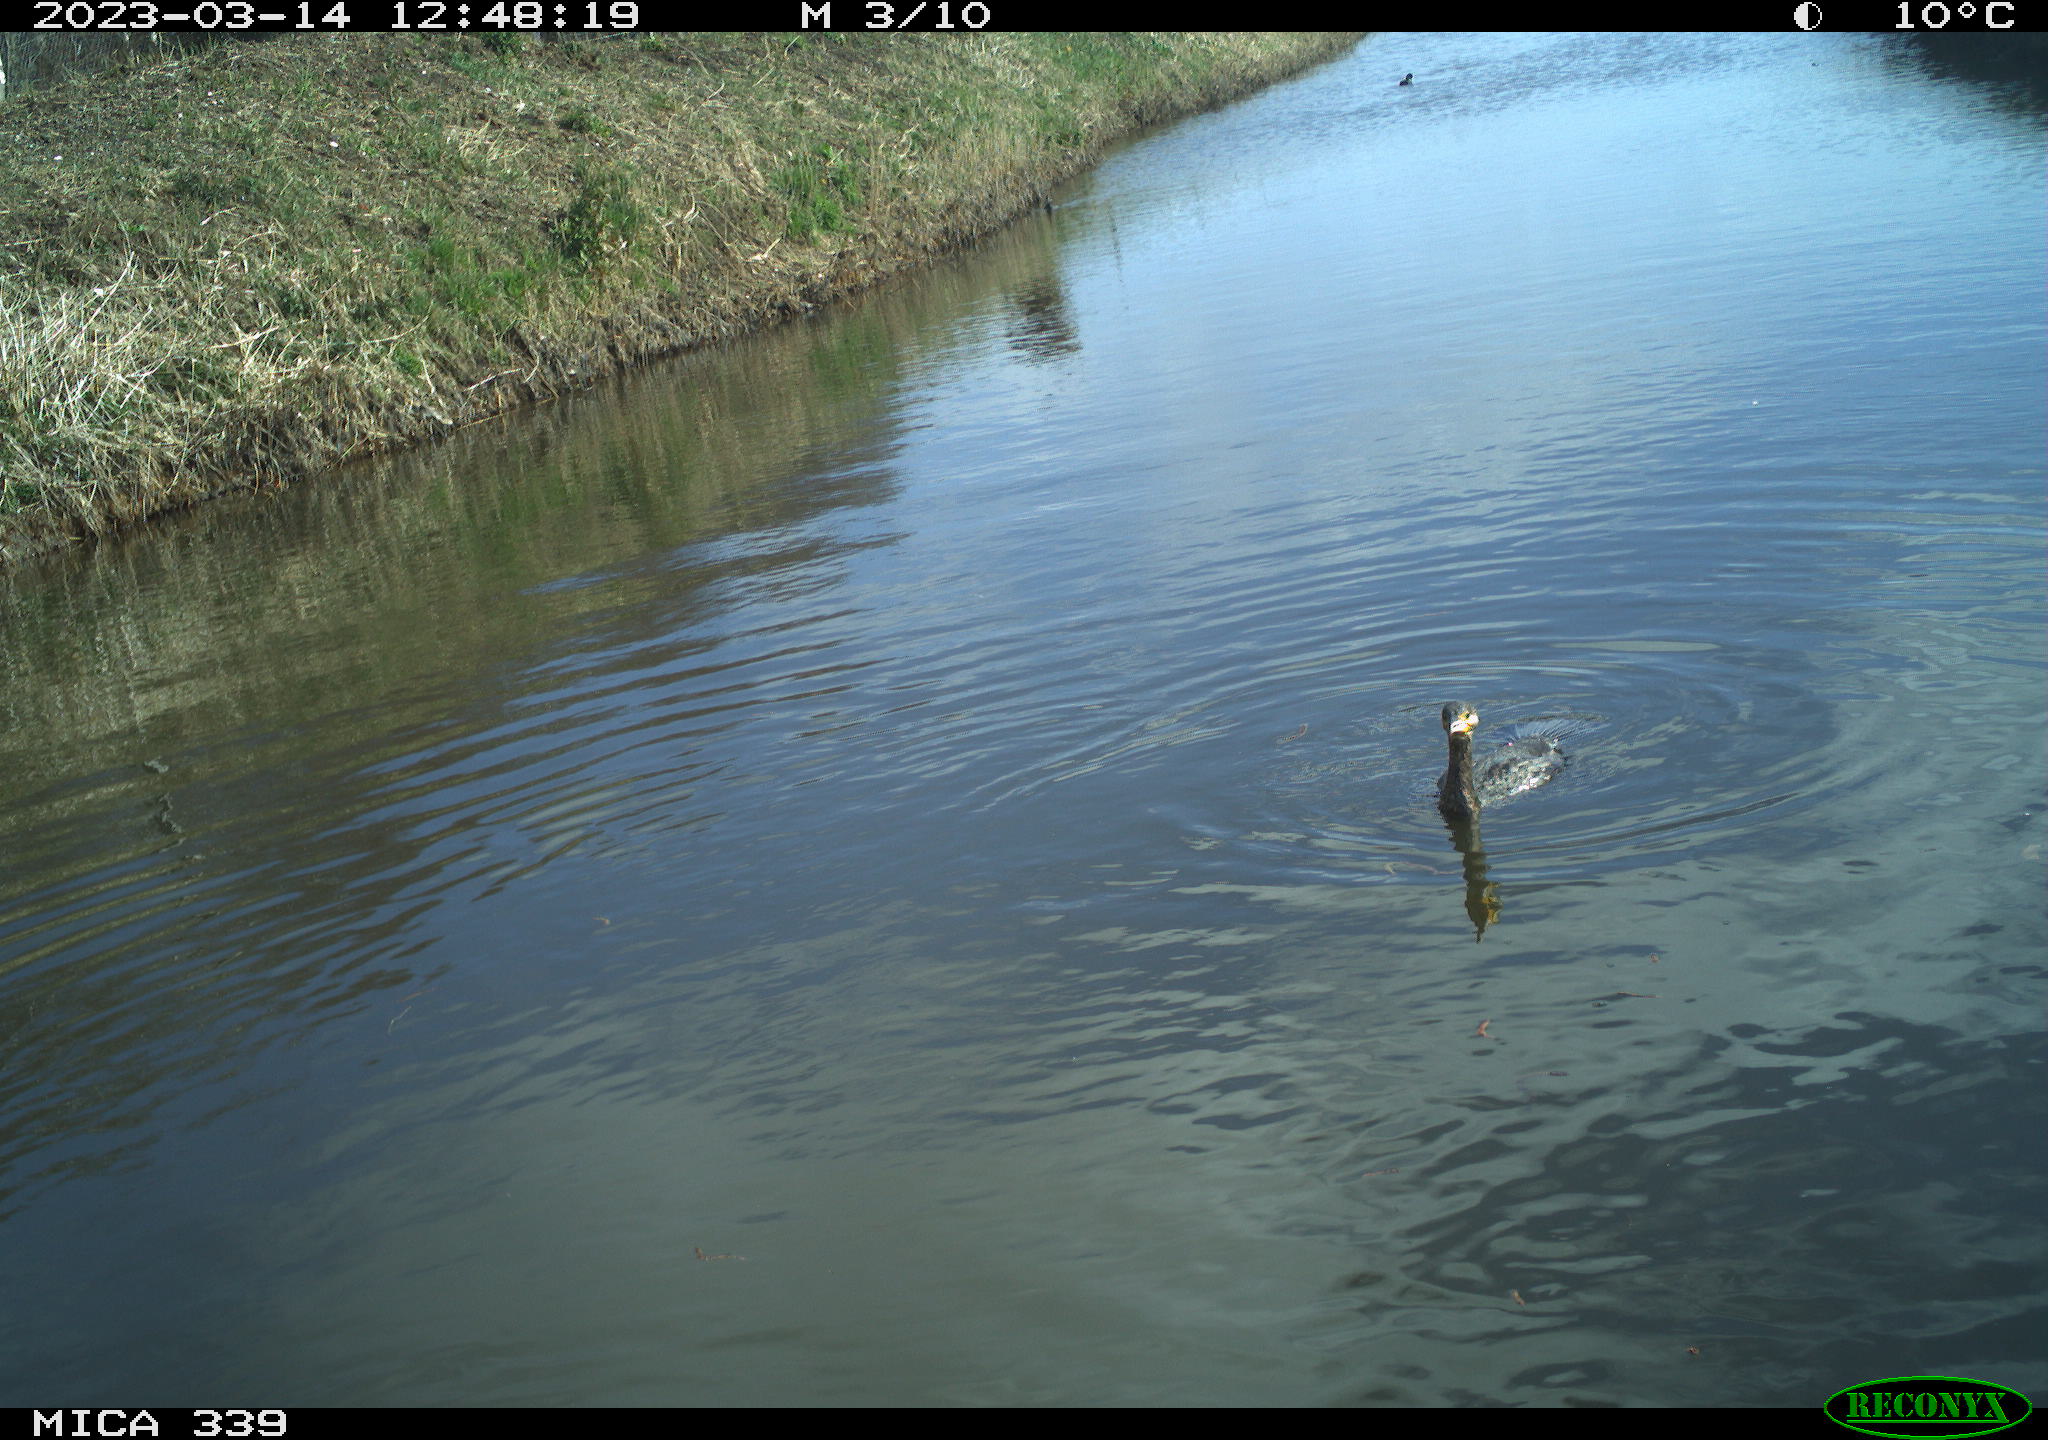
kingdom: Animalia
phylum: Chordata
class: Aves
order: Suliformes
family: Phalacrocoracidae
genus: Phalacrocorax
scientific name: Phalacrocorax carbo
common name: Great cormorant
